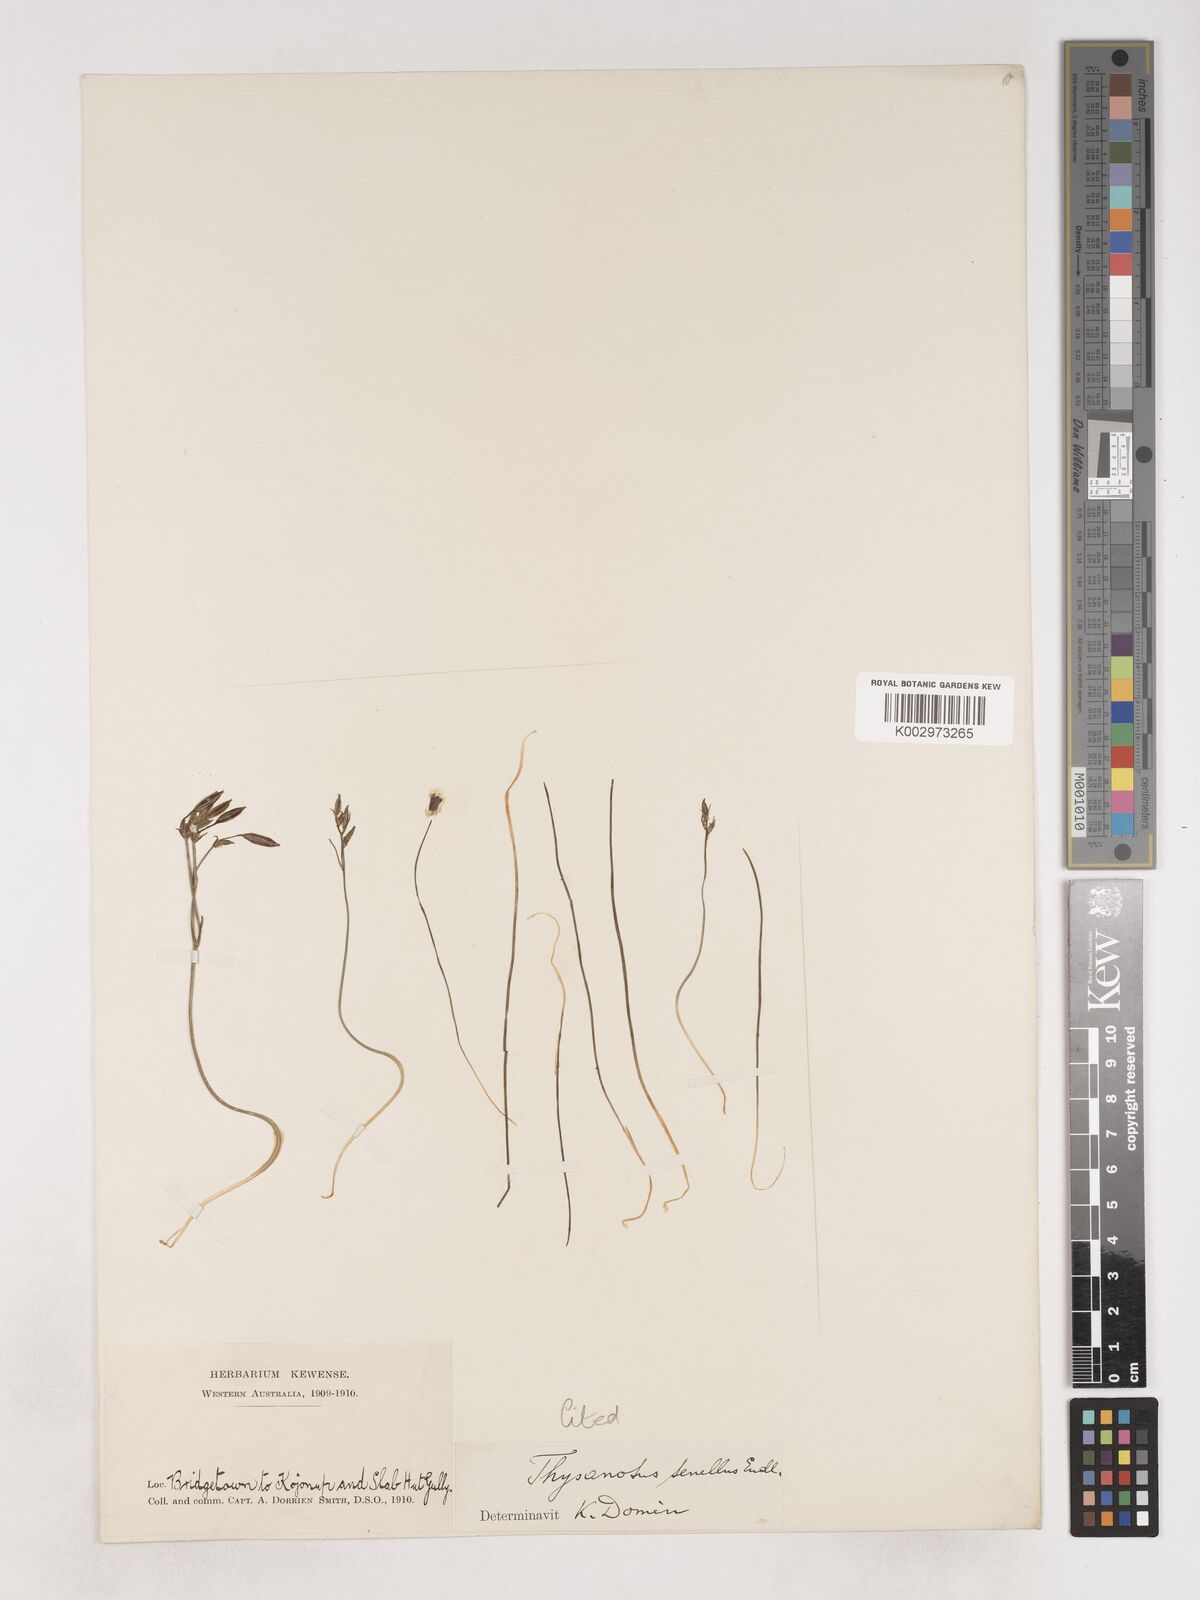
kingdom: Plantae
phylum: Tracheophyta
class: Liliopsida
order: Asparagales
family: Asparagaceae
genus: Thysanotus
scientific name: Thysanotus tenellus
